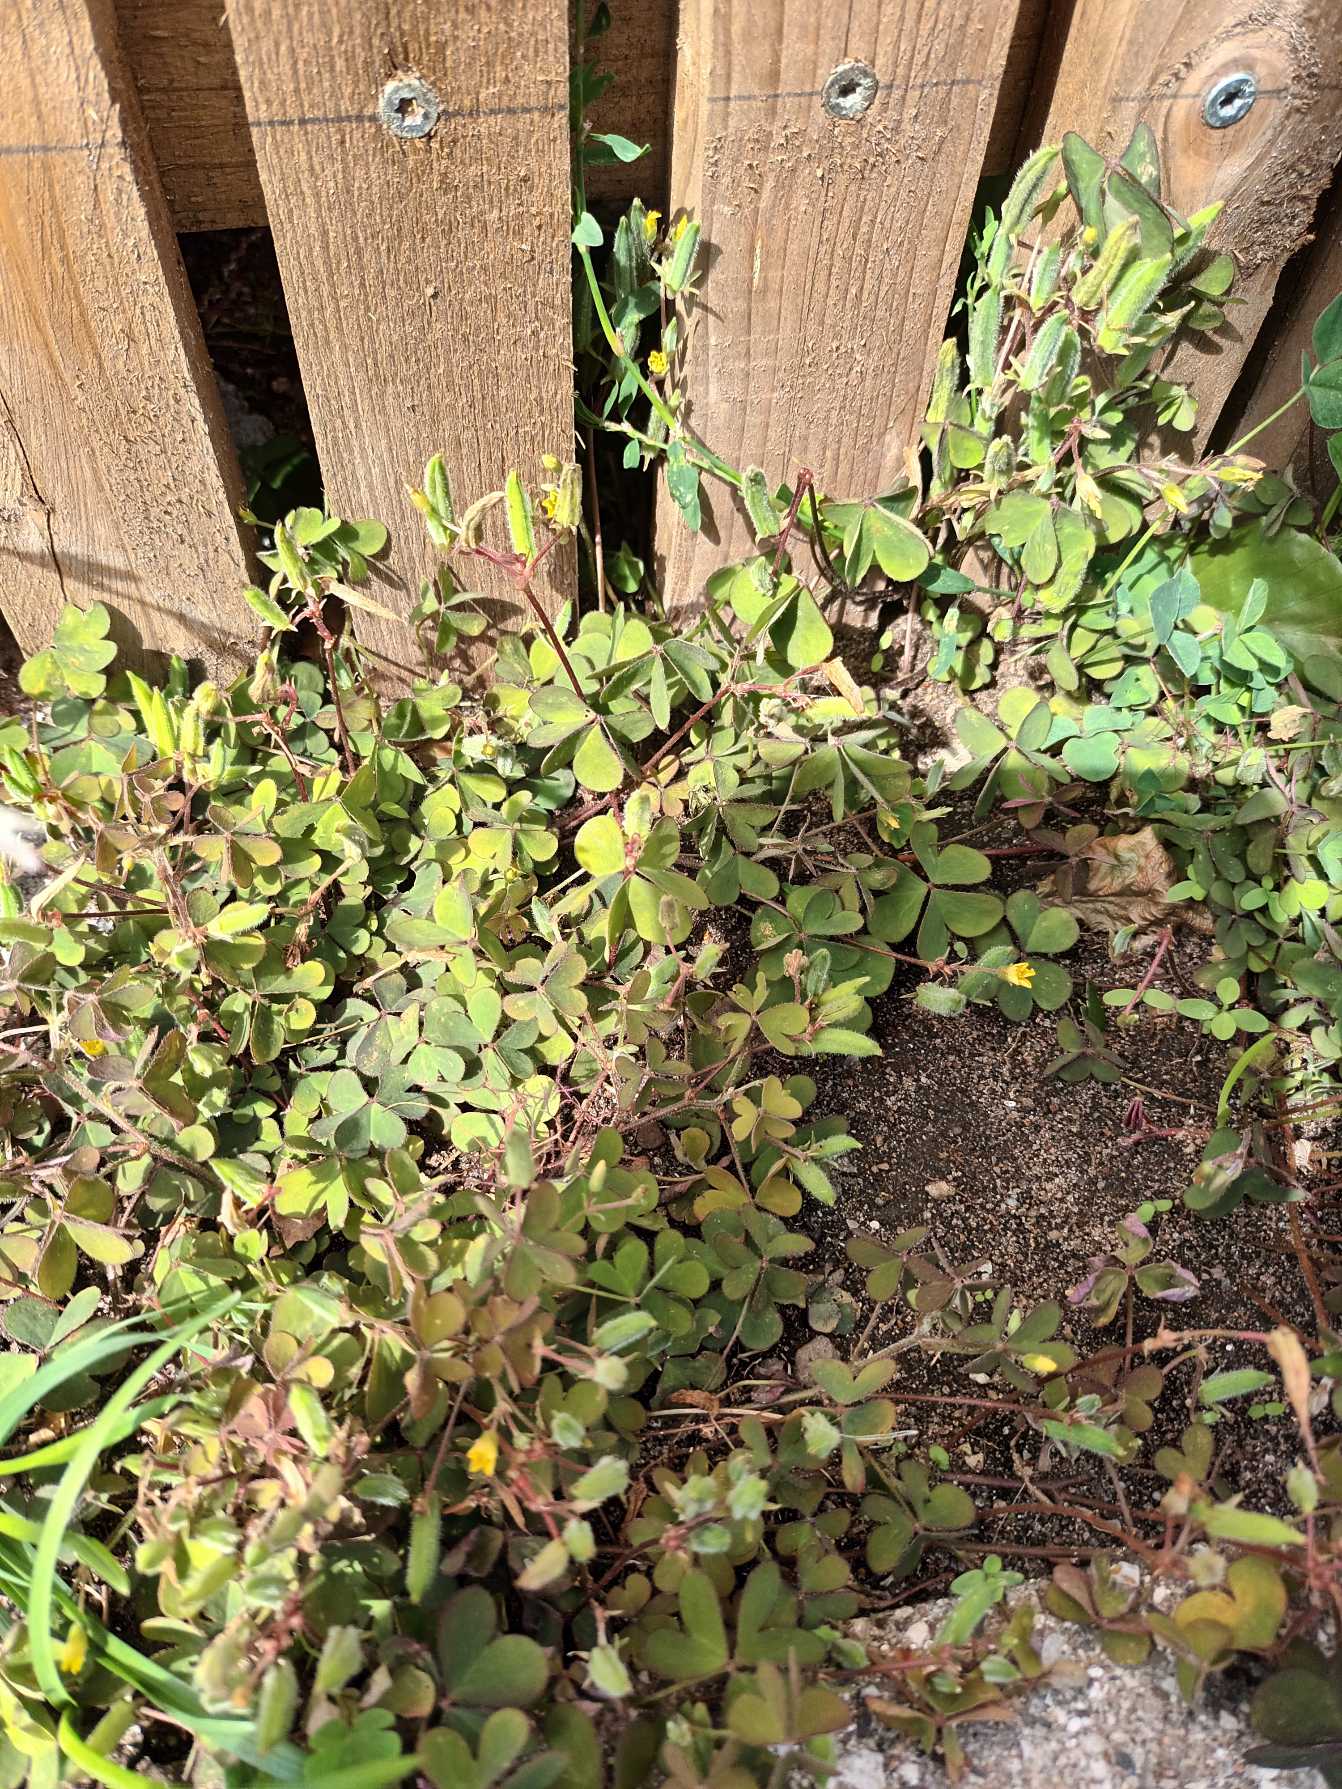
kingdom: Plantae
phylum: Tracheophyta
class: Magnoliopsida
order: Oxalidales
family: Oxalidaceae
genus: Oxalis
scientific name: Oxalis corniculata
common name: Nedliggende surkløver
